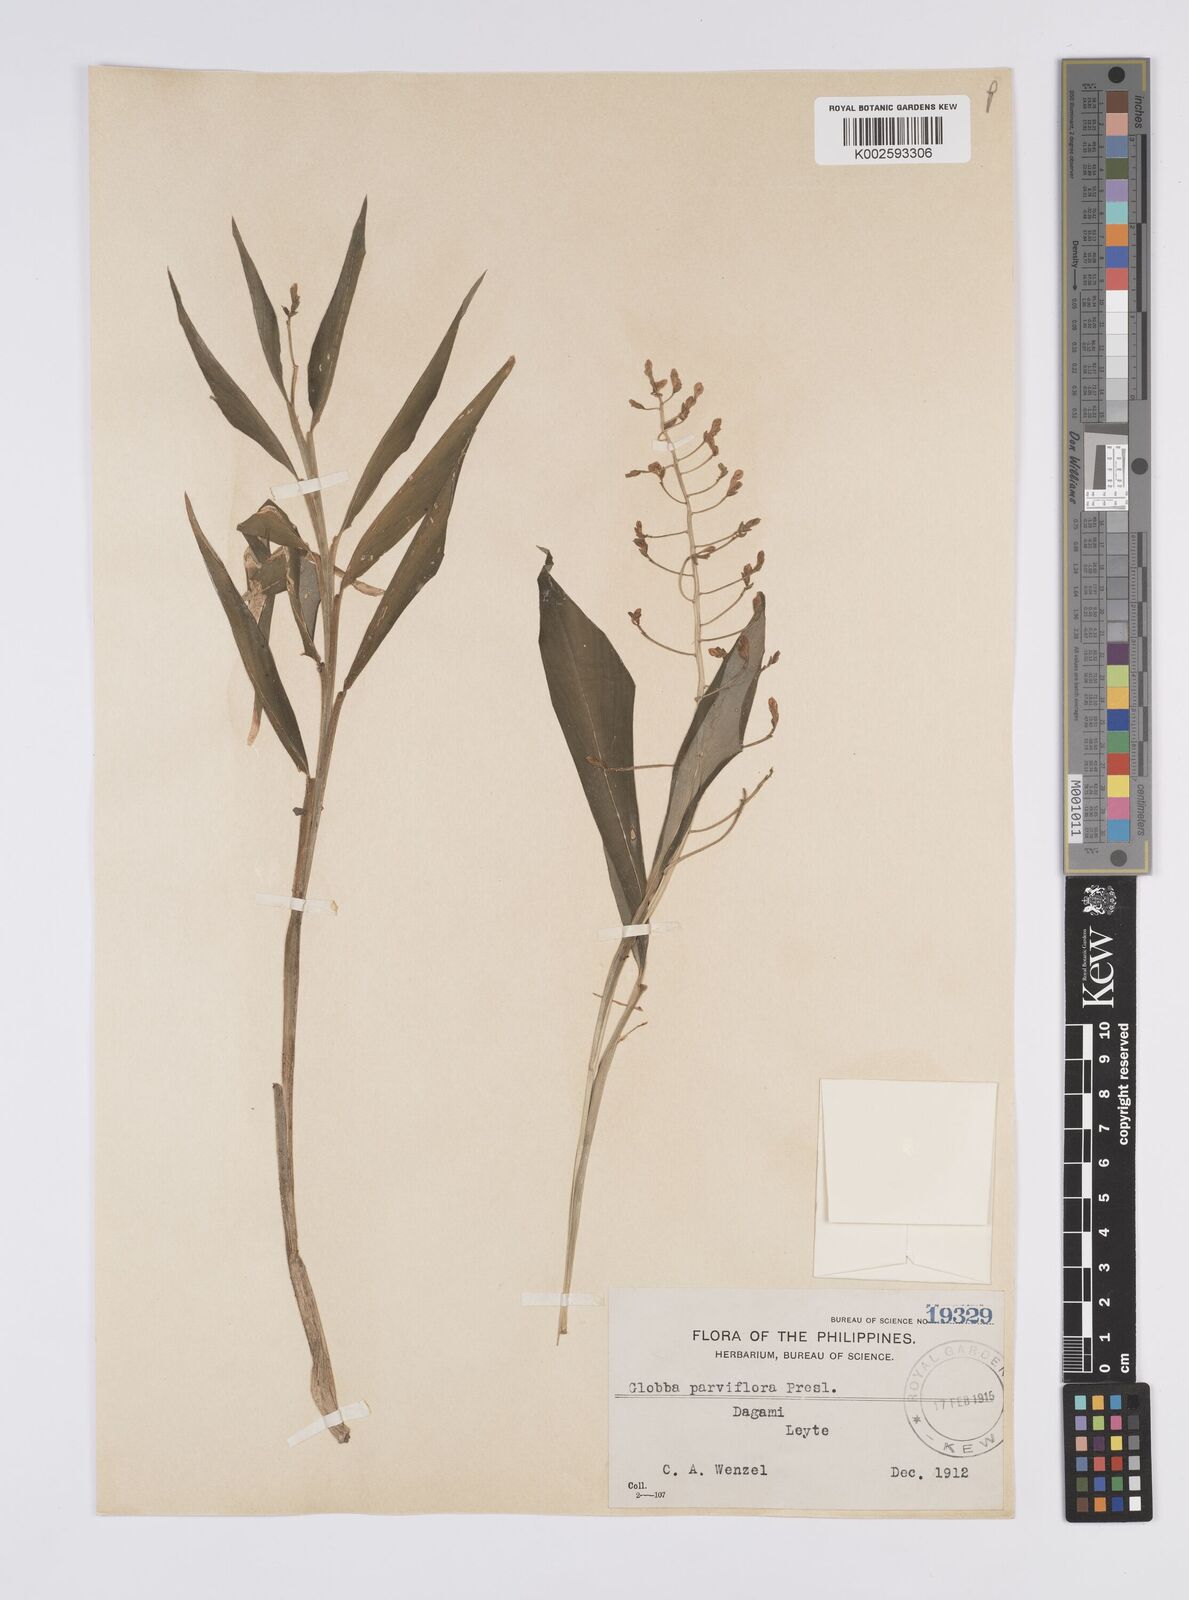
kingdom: Plantae
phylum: Tracheophyta
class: Liliopsida
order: Zingiberales
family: Zingiberaceae
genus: Globba
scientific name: Globba parviflora
